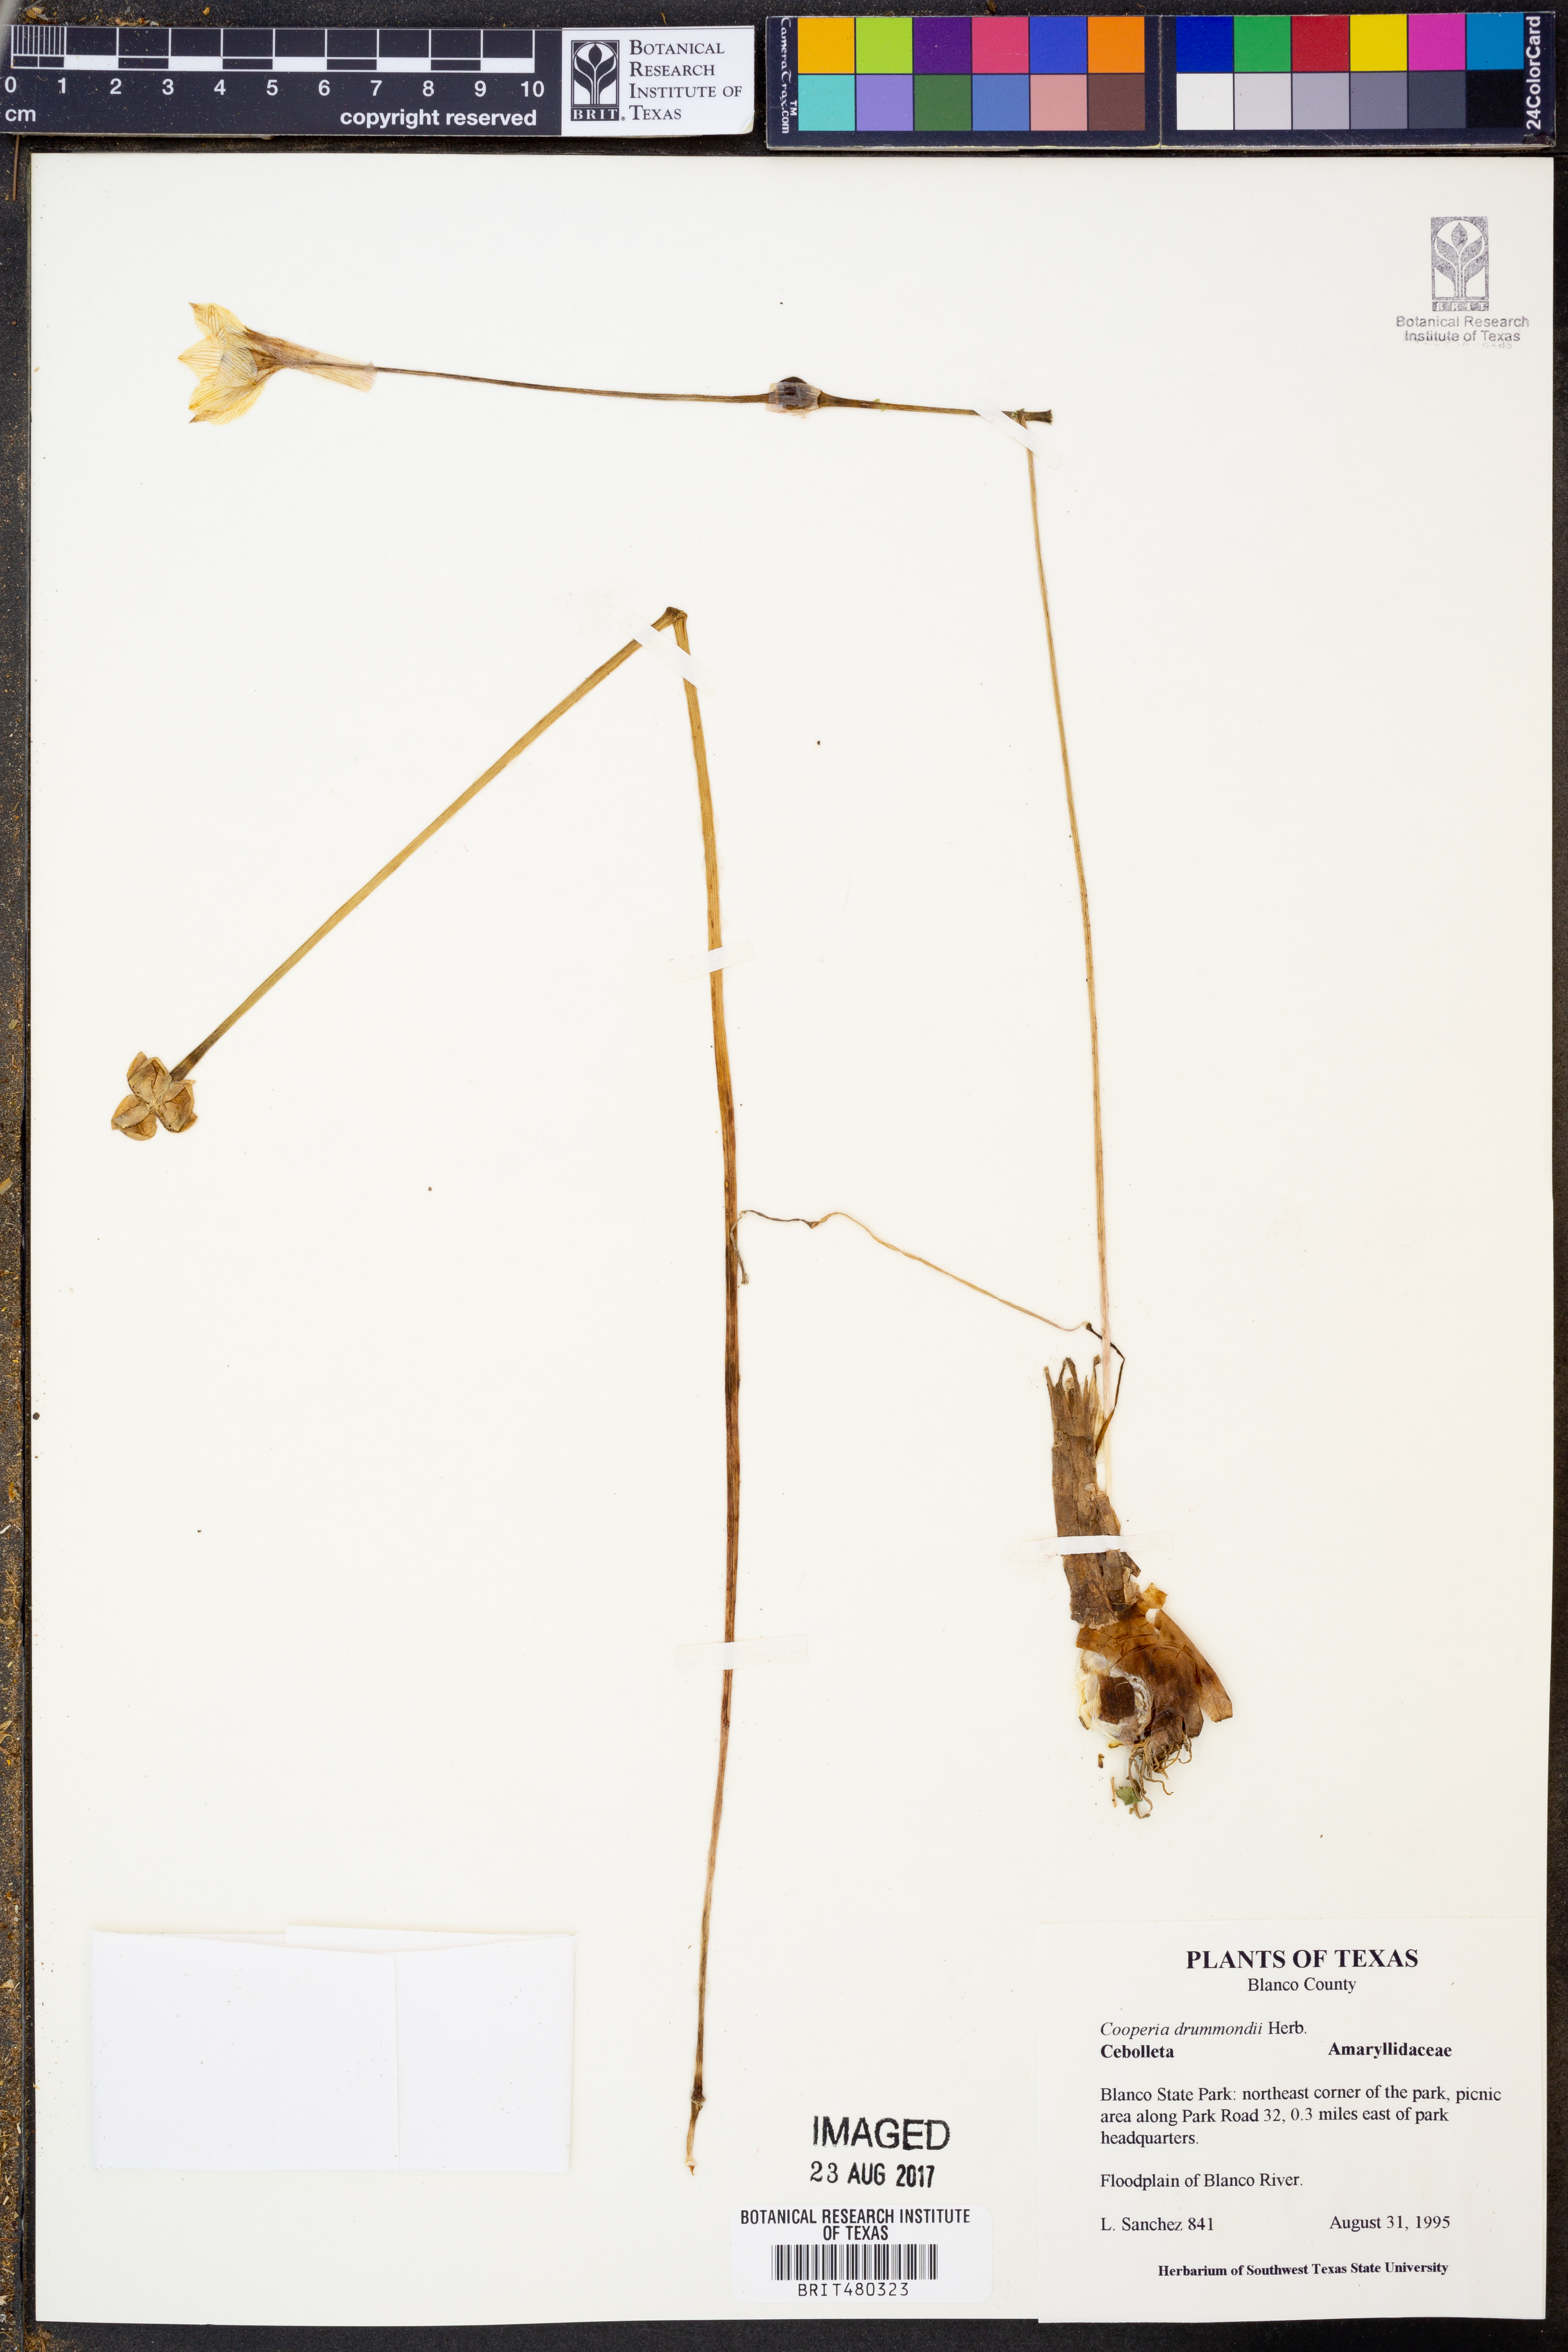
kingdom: Plantae
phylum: Tracheophyta
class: Liliopsida
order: Asparagales
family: Amaryllidaceae
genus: Zephyranthes
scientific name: Zephyranthes chlorosolen
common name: Evening rain-lily
